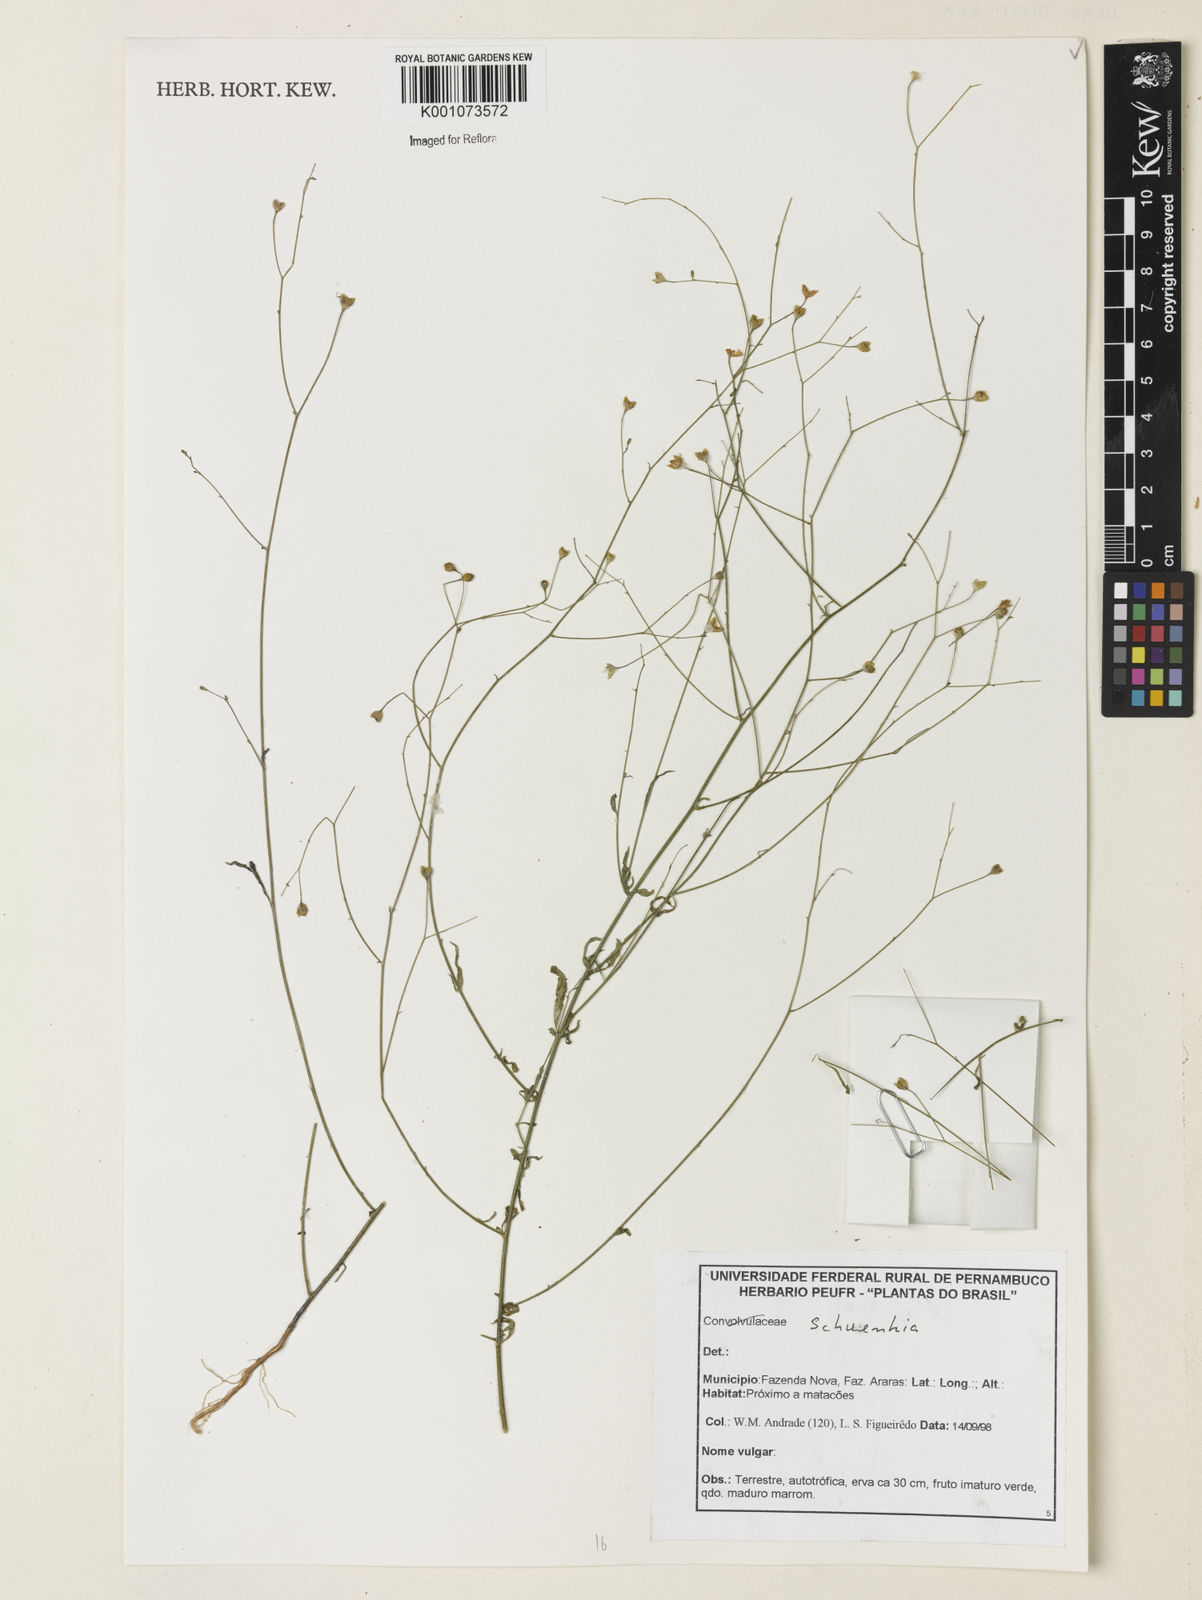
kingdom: Plantae
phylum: Tracheophyta
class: Magnoliopsida
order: Solanales
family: Solanaceae
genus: Schwenckia
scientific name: Schwenckia
